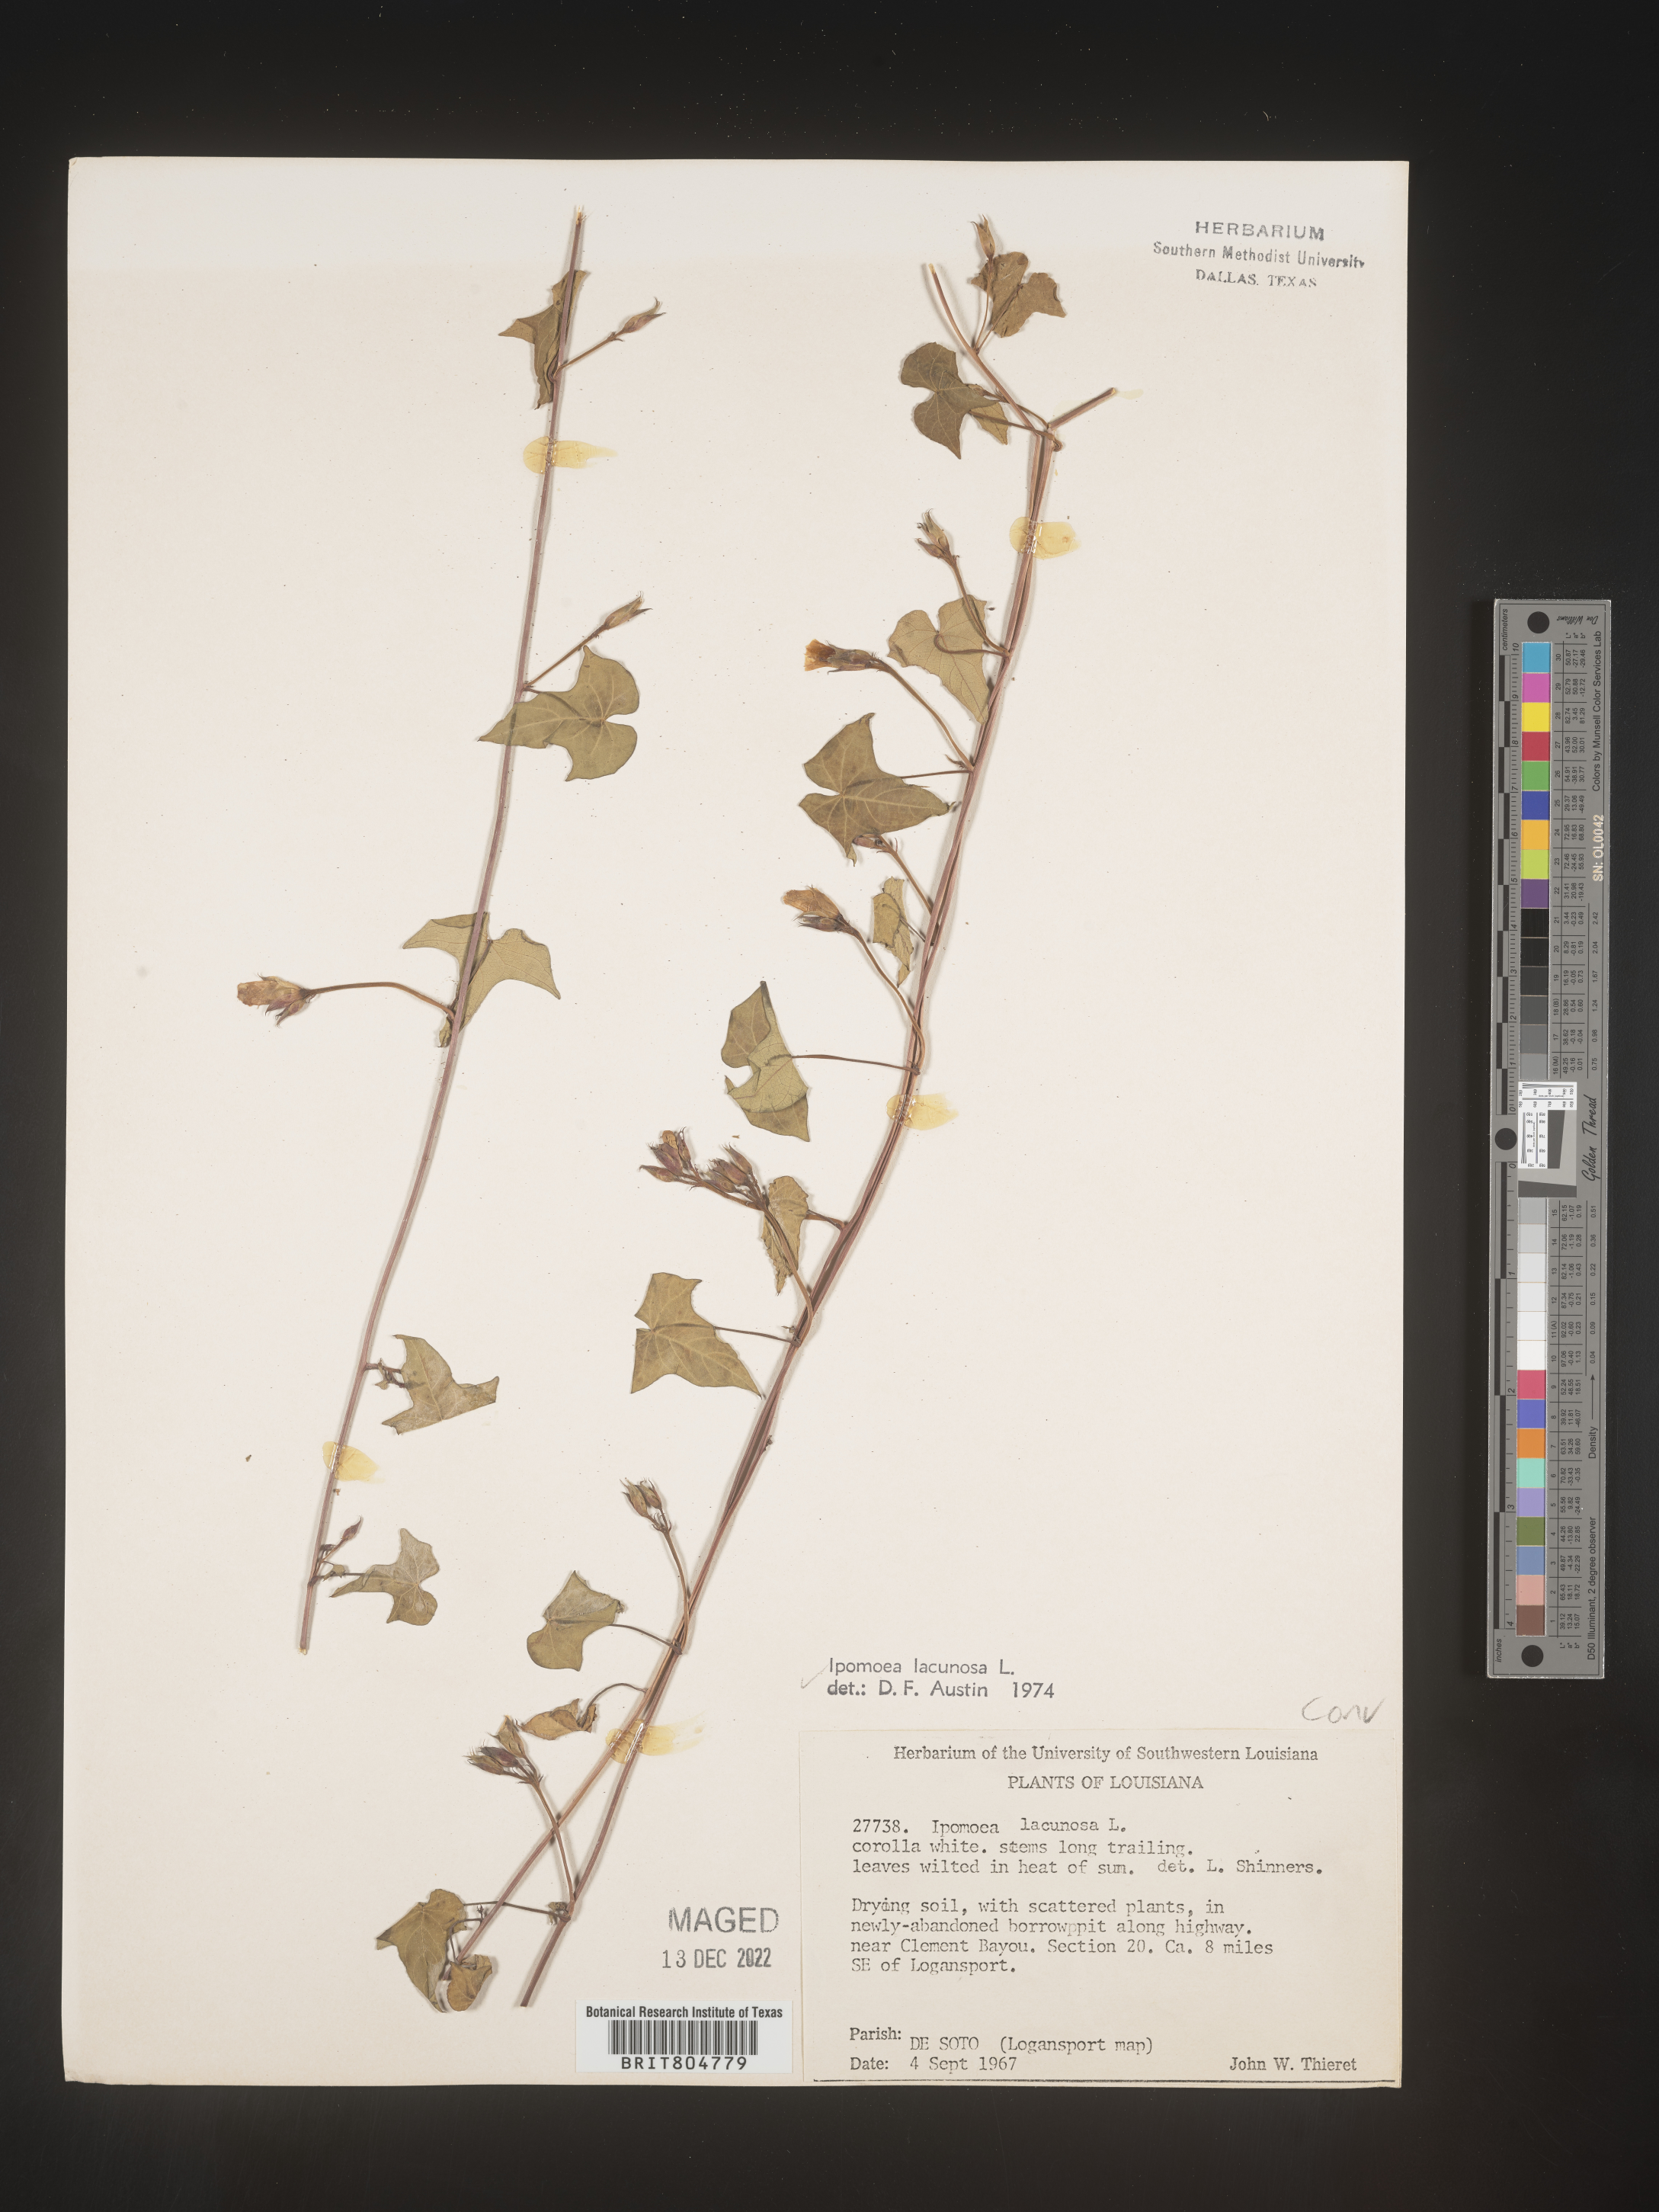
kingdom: Plantae
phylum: Tracheophyta
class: Magnoliopsida
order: Solanales
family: Convolvulaceae
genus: Ipomoea
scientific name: Ipomoea lacunosa
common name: White morning-glory
